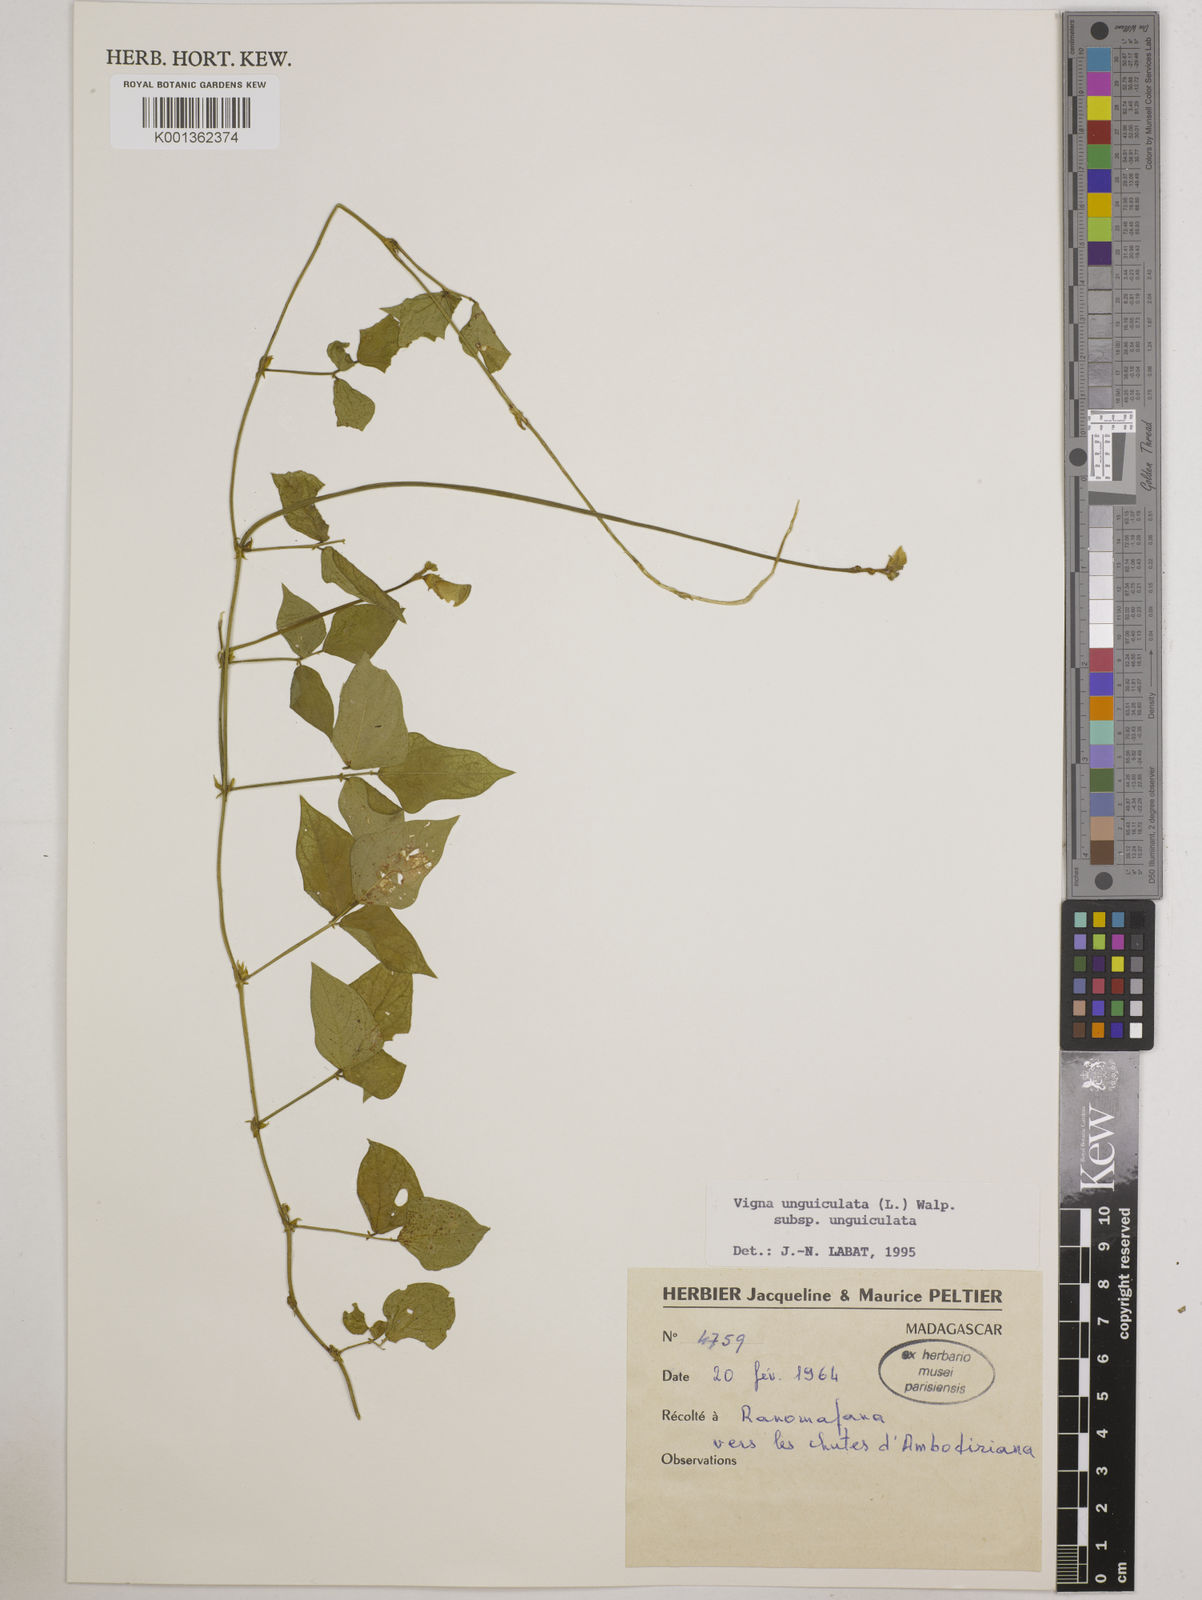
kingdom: Plantae
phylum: Tracheophyta
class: Magnoliopsida
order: Fabales
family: Fabaceae
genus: Vigna
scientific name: Vigna
